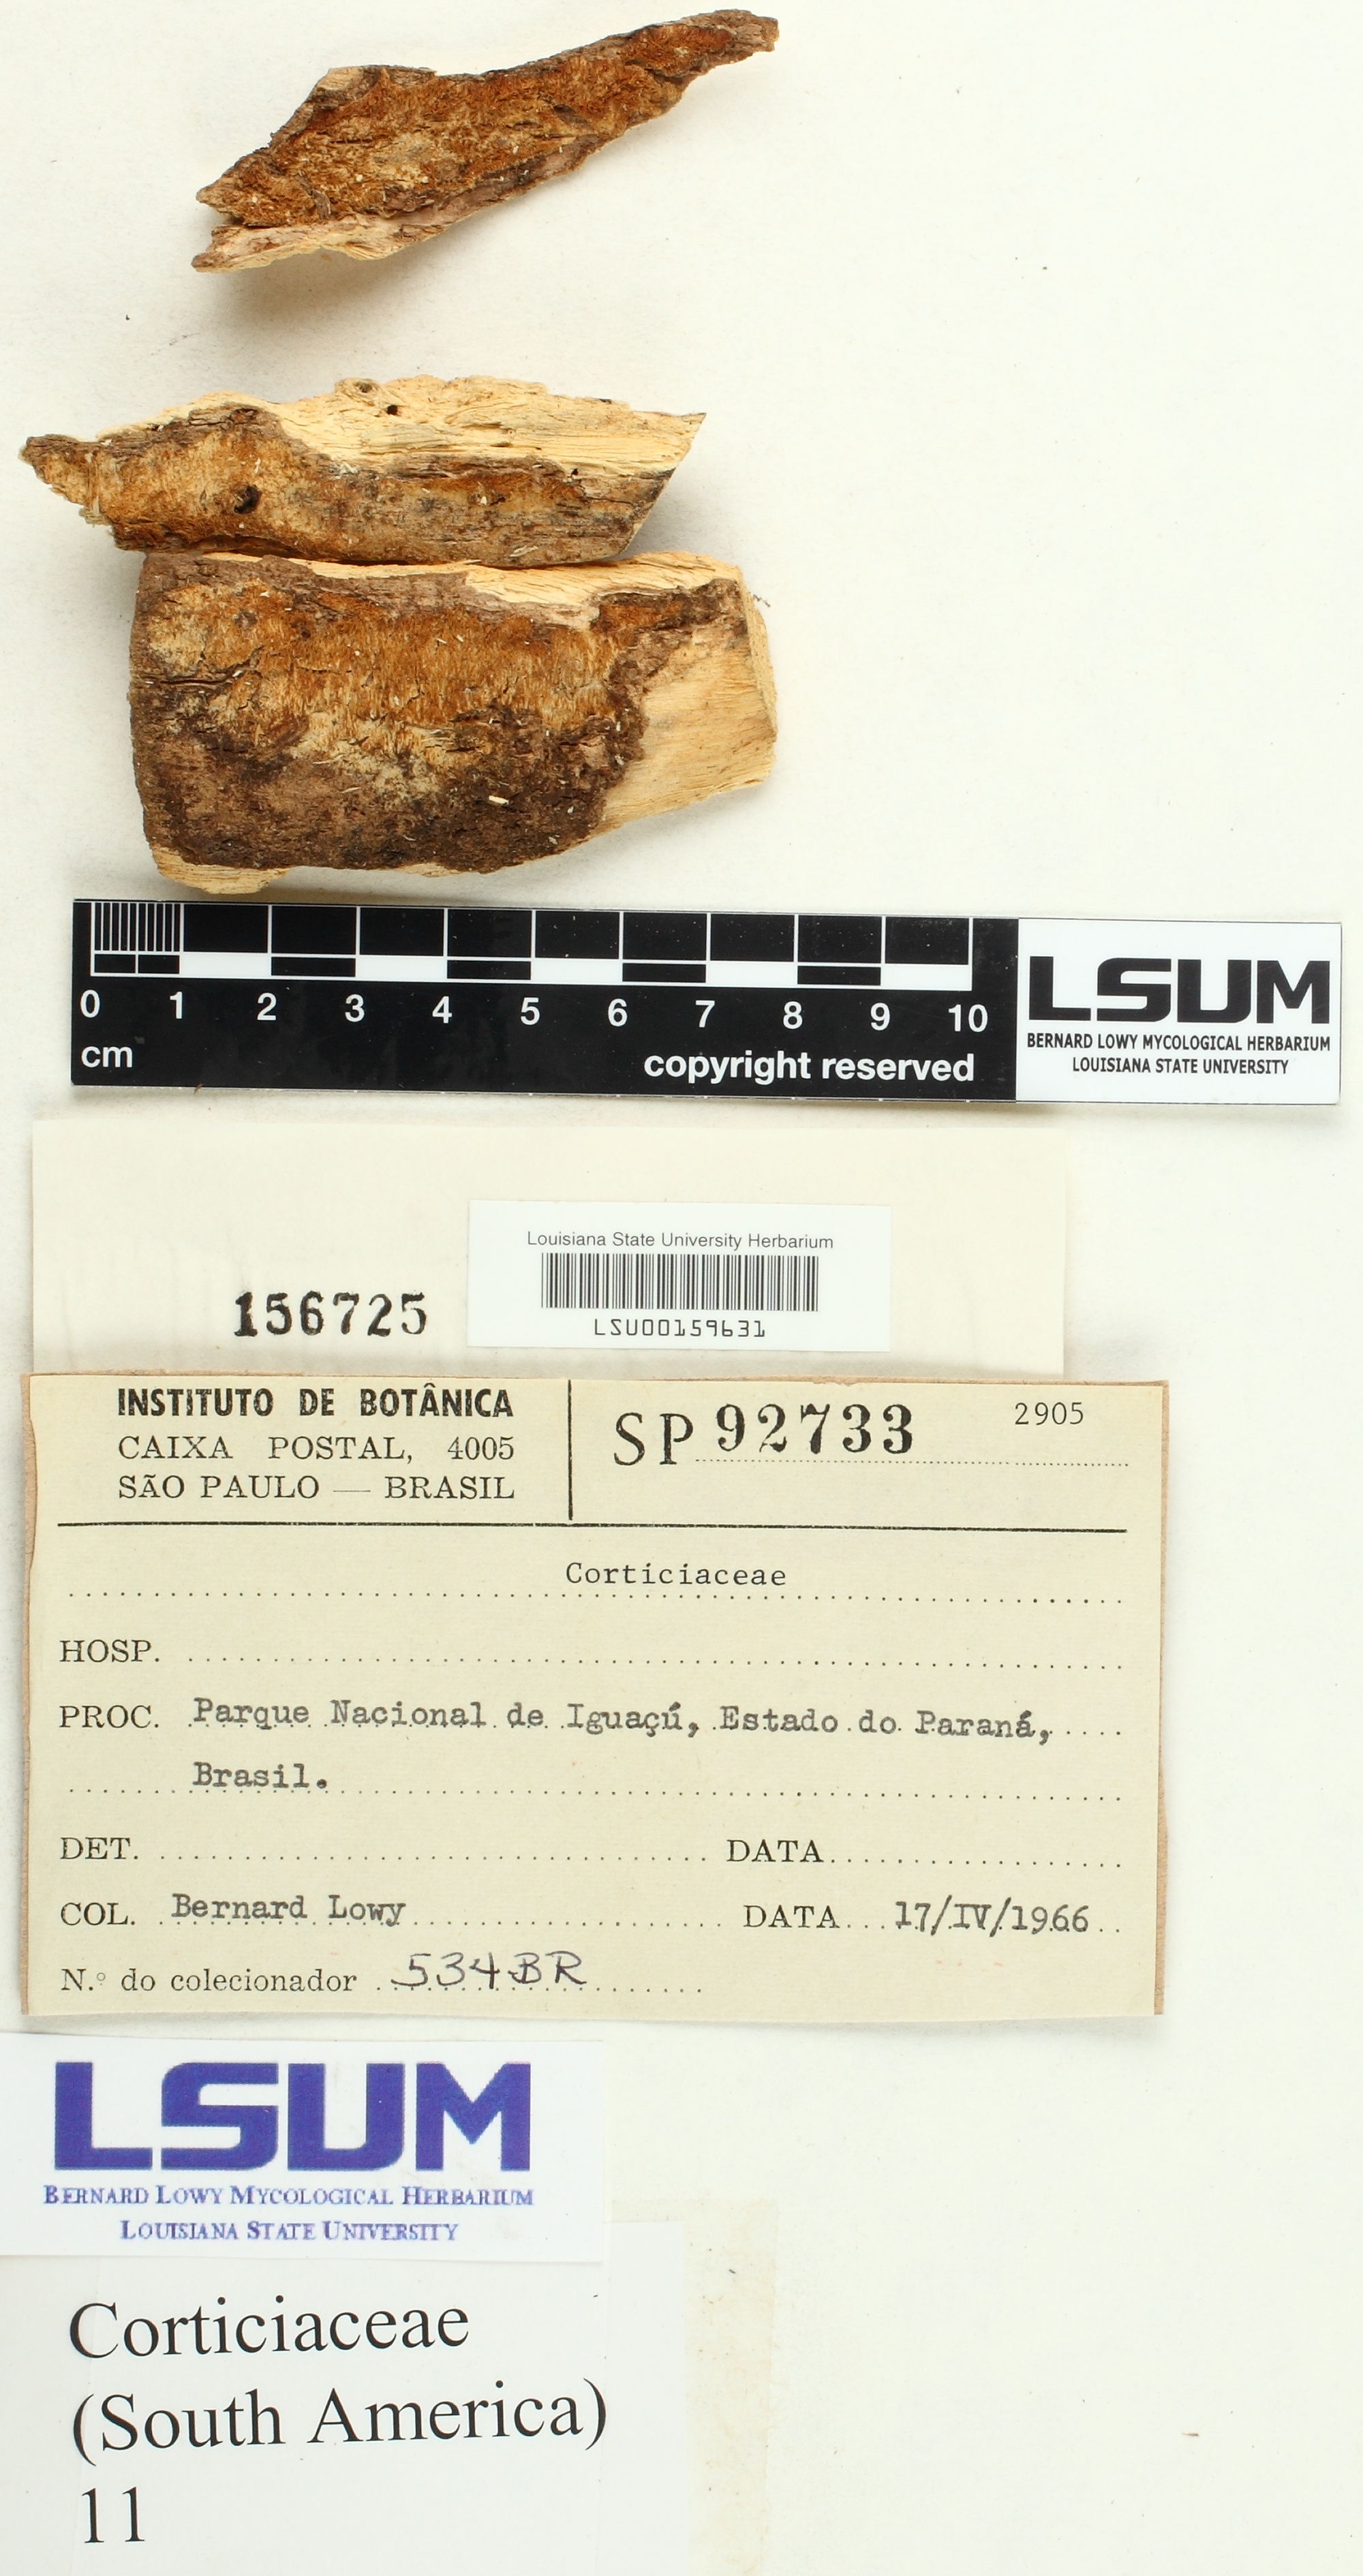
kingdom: Fungi
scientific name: Fungi
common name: Fungi
